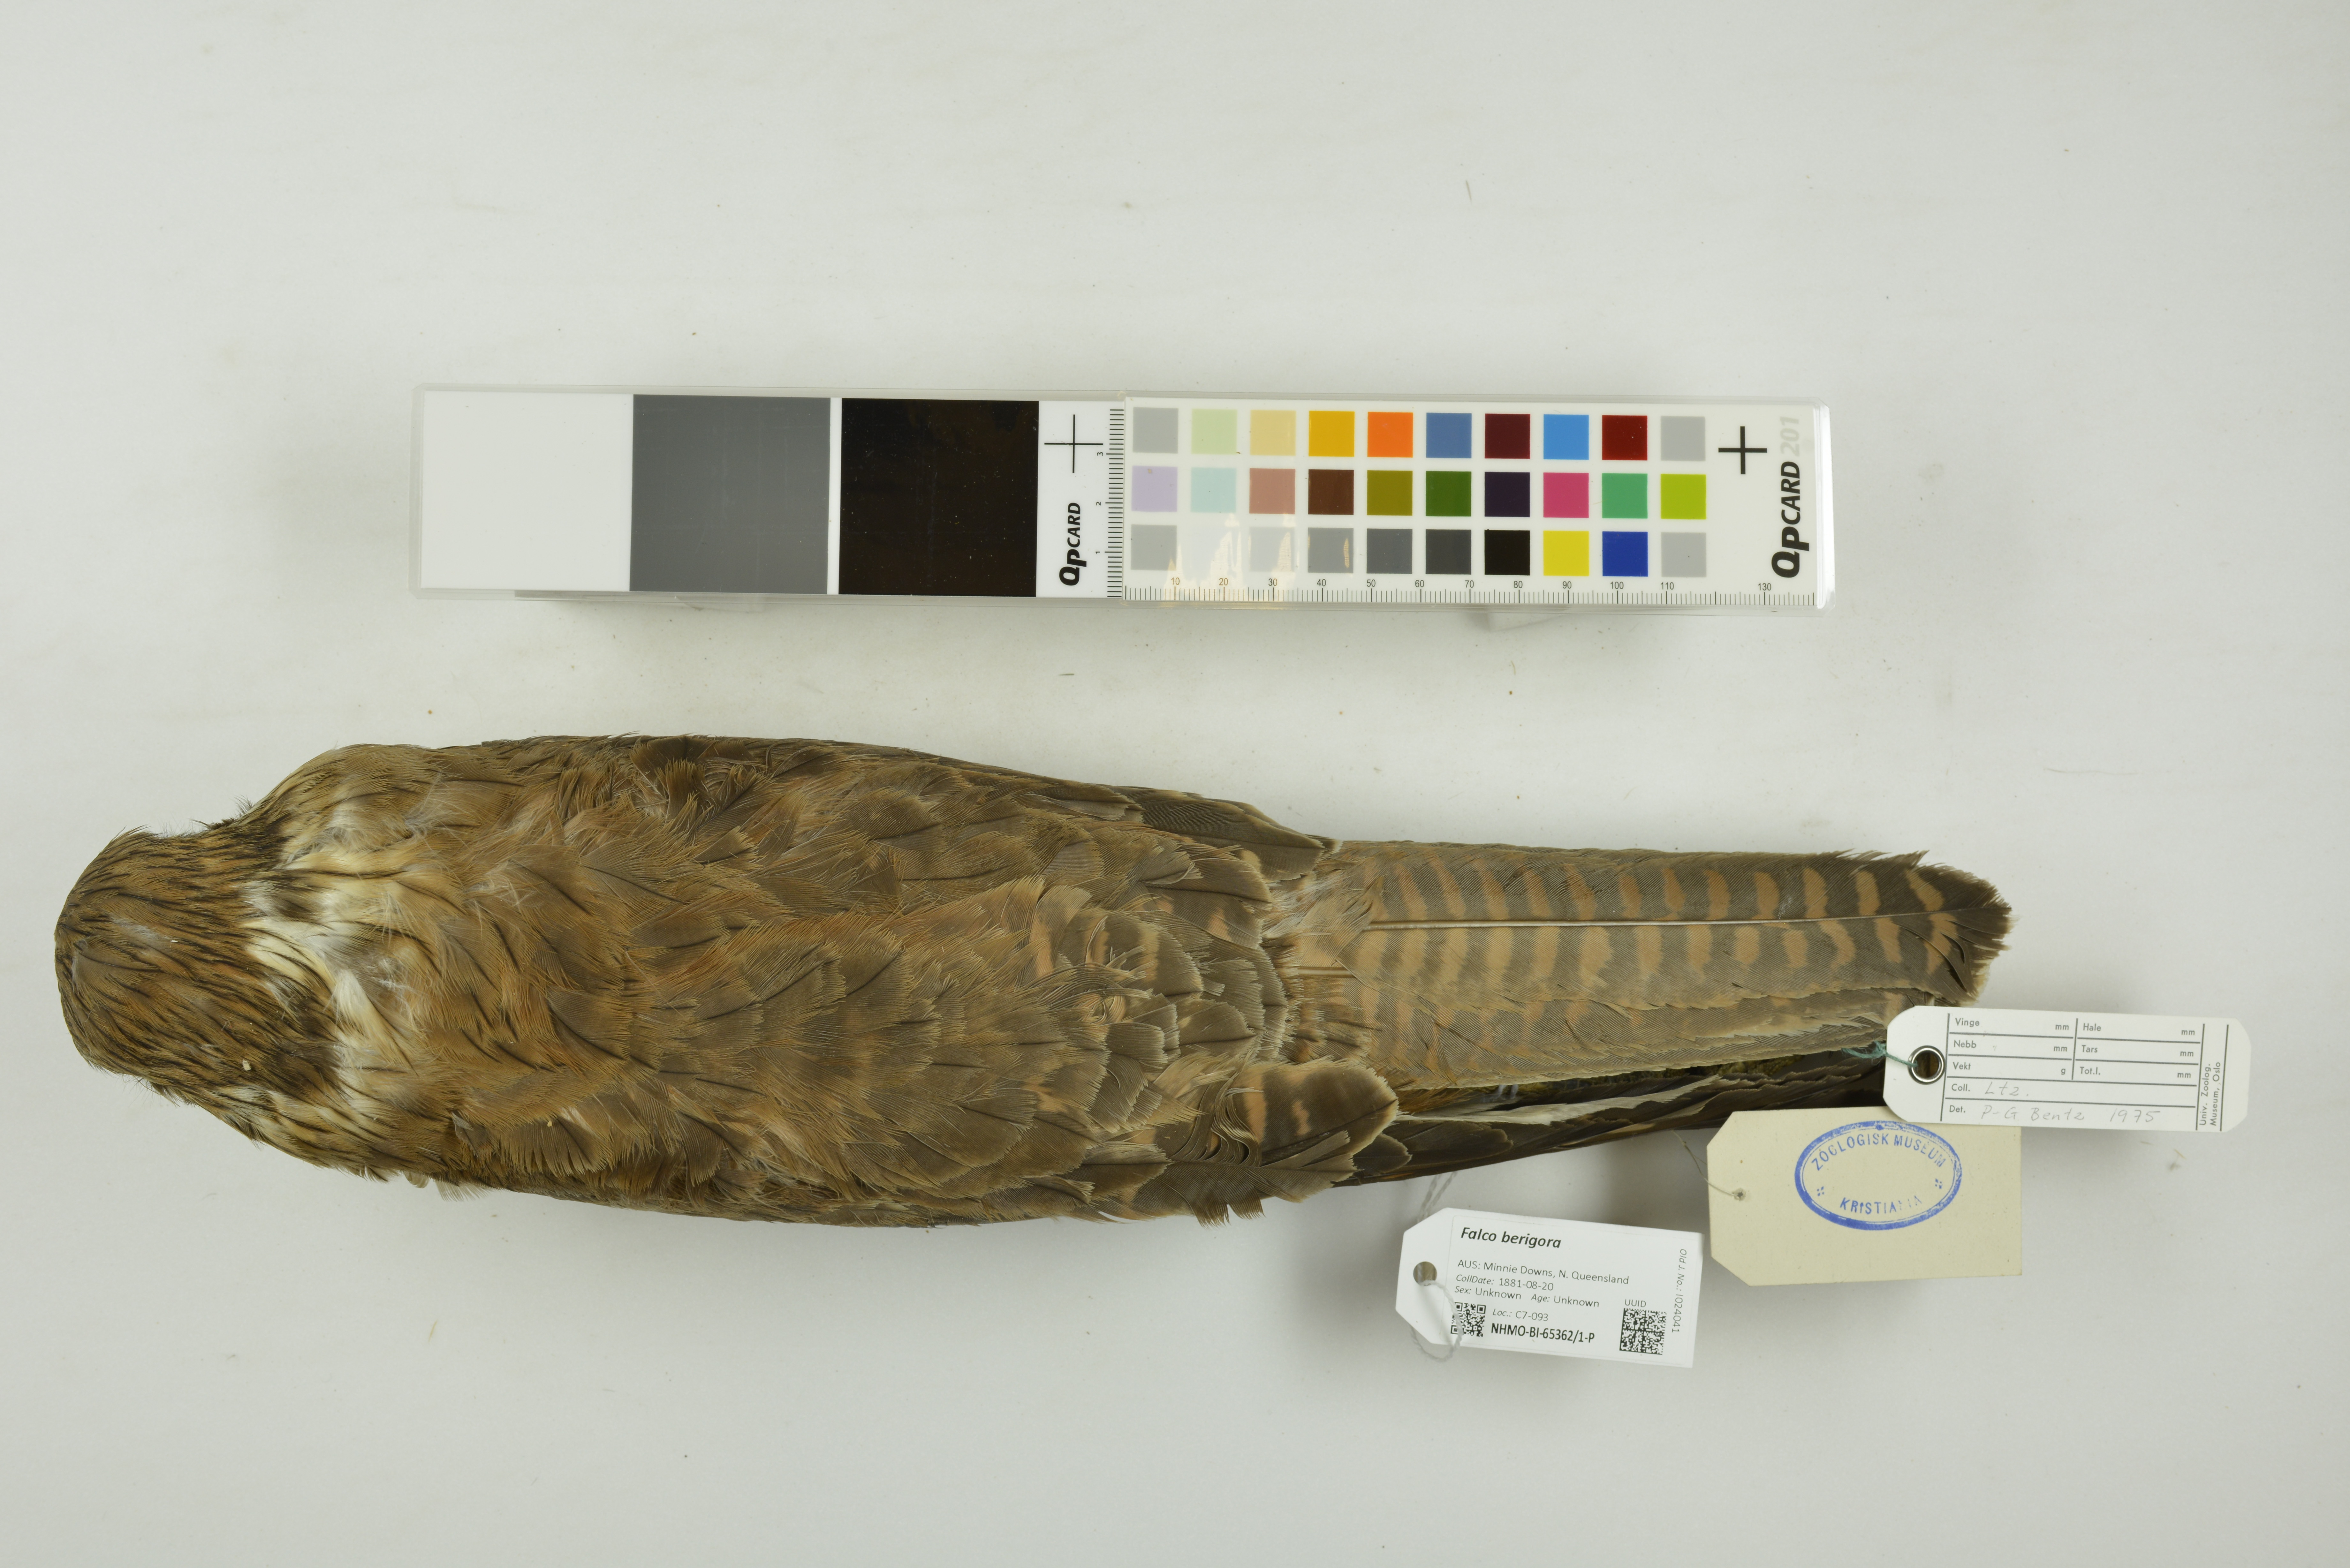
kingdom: Animalia
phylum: Chordata
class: Aves
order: Falconiformes
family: Falconidae
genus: Falco
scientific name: Falco berigora
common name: Brown falcon
